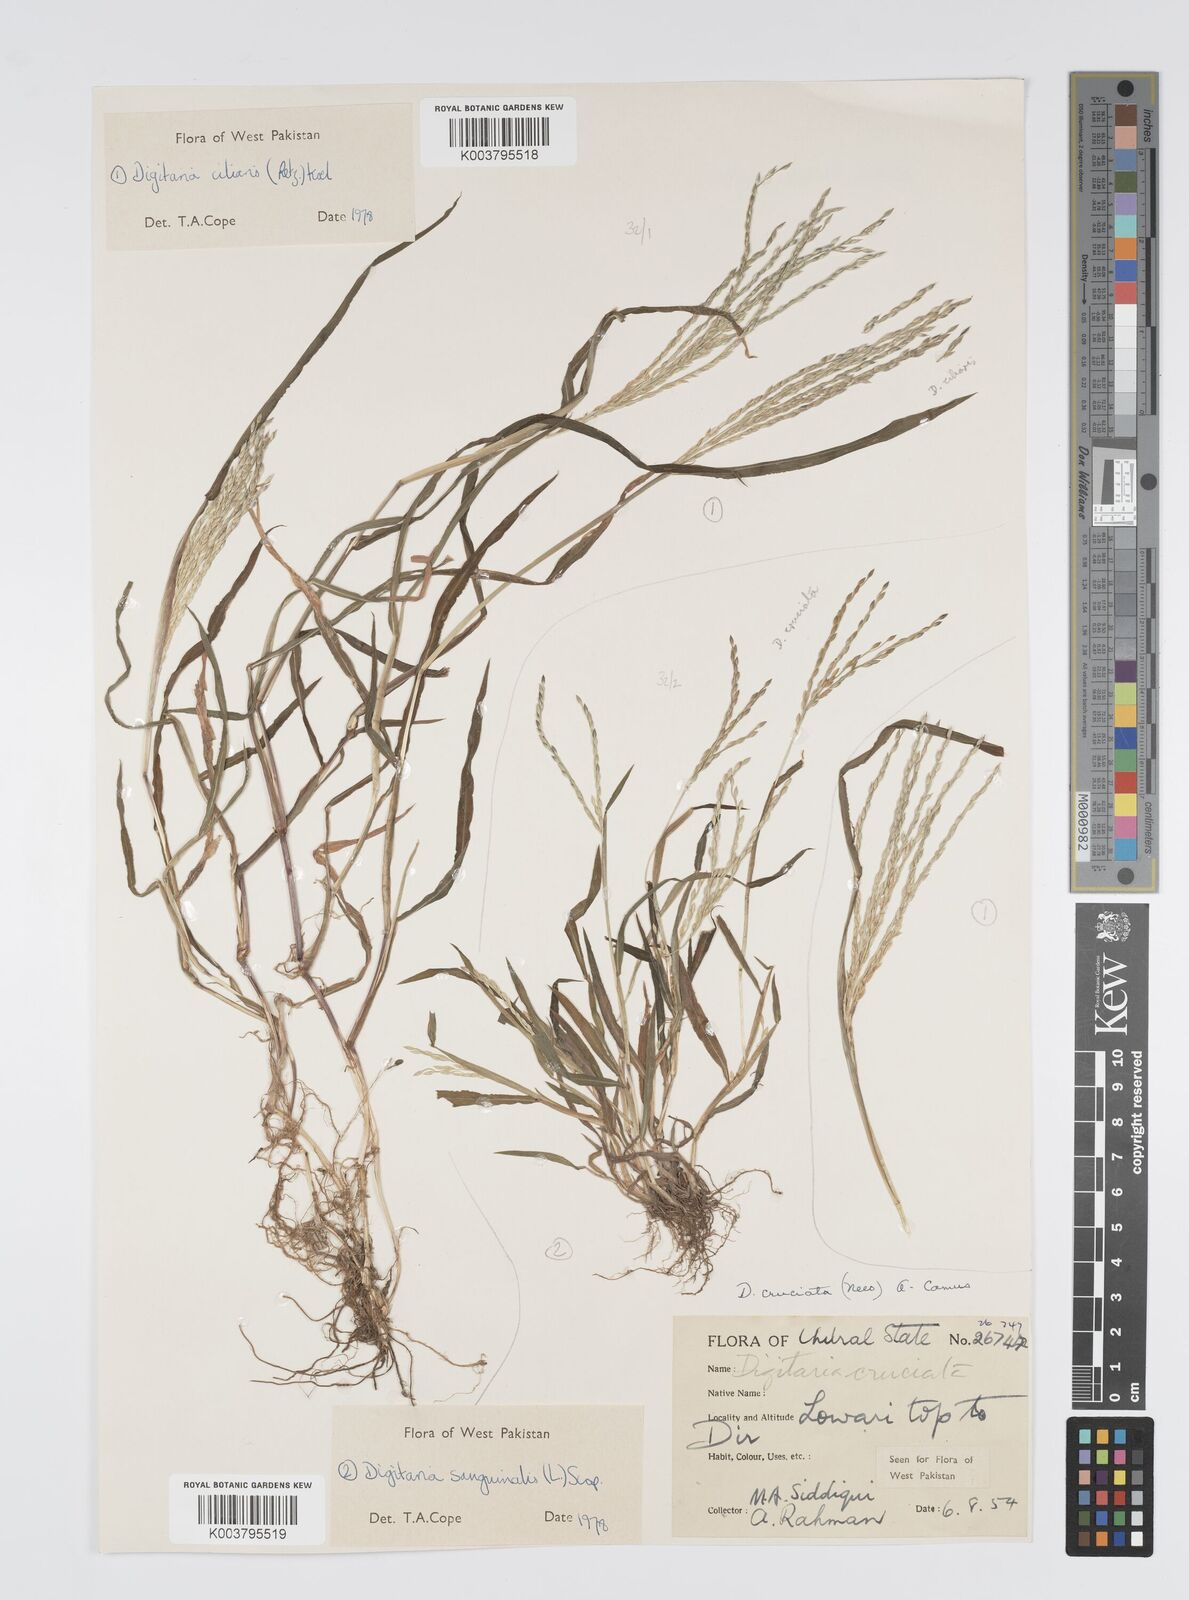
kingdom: Plantae
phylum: Tracheophyta
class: Liliopsida
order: Poales
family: Poaceae
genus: Digitaria
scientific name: Digitaria sanguinalis
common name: Hairy crabgrass
